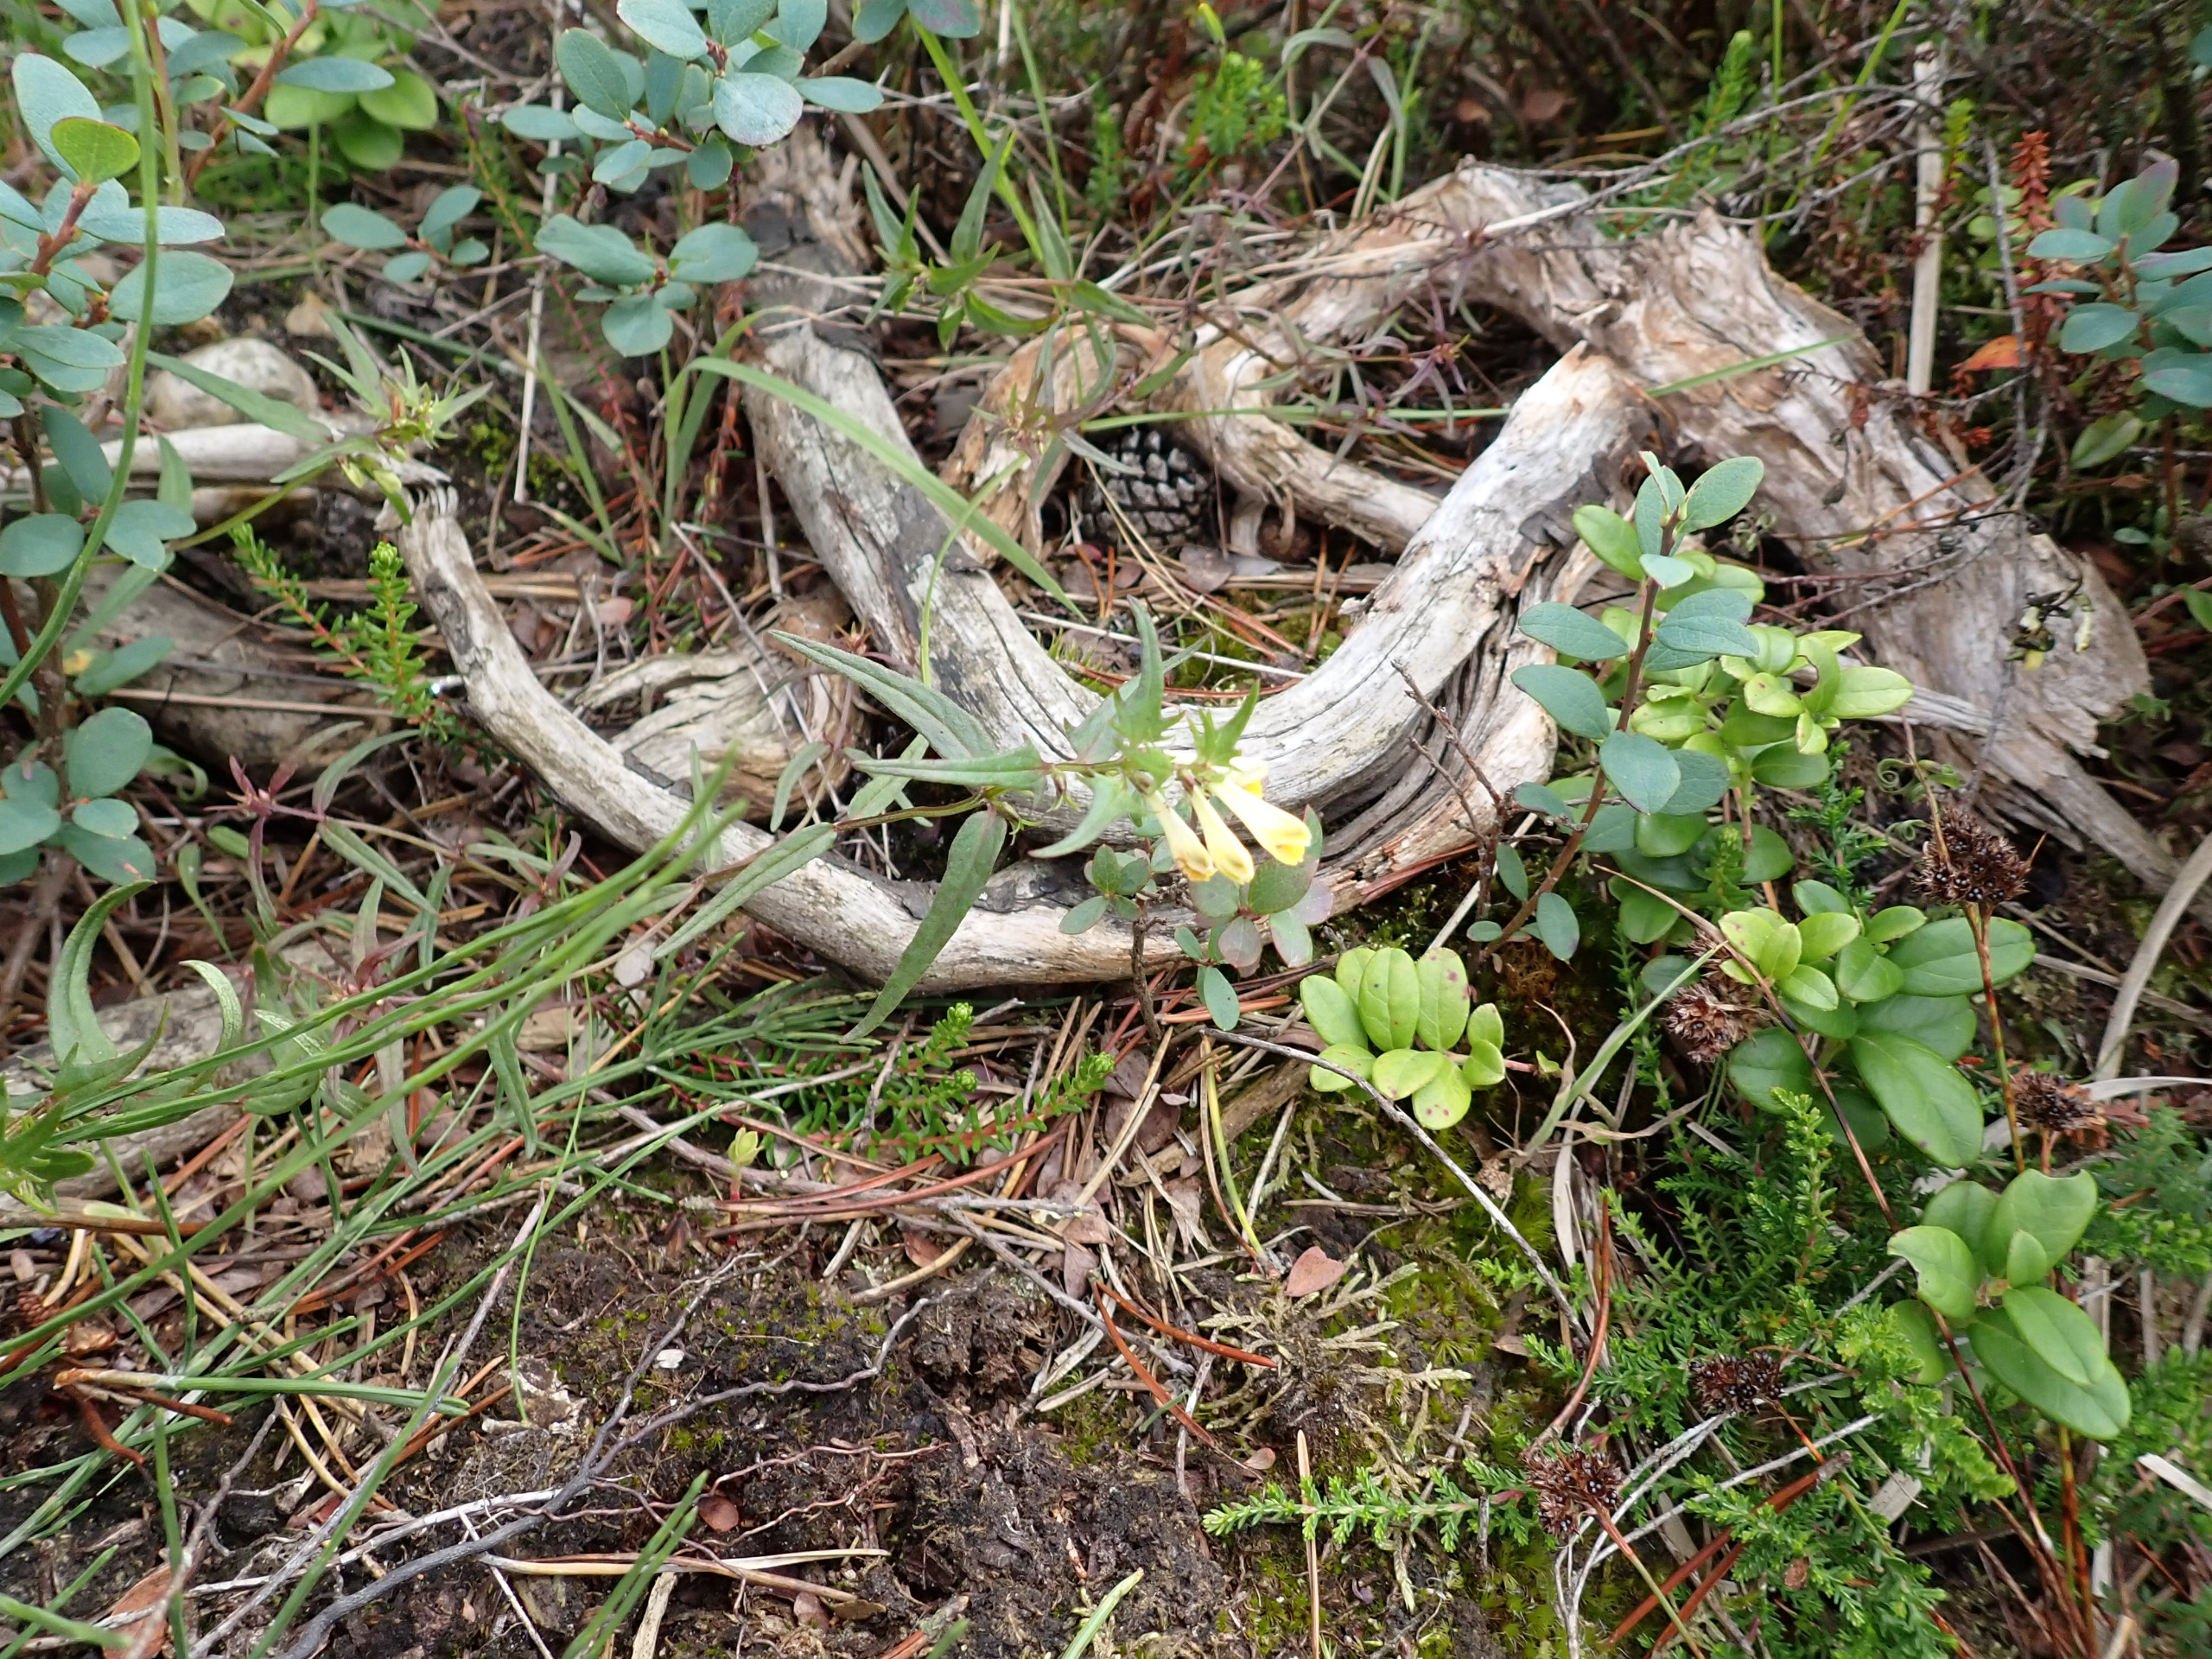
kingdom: Plantae
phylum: Tracheophyta
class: Magnoliopsida
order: Lamiales
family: Orobanchaceae
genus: Melampyrum
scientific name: Melampyrum pratense
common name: Almindelig kohvede
